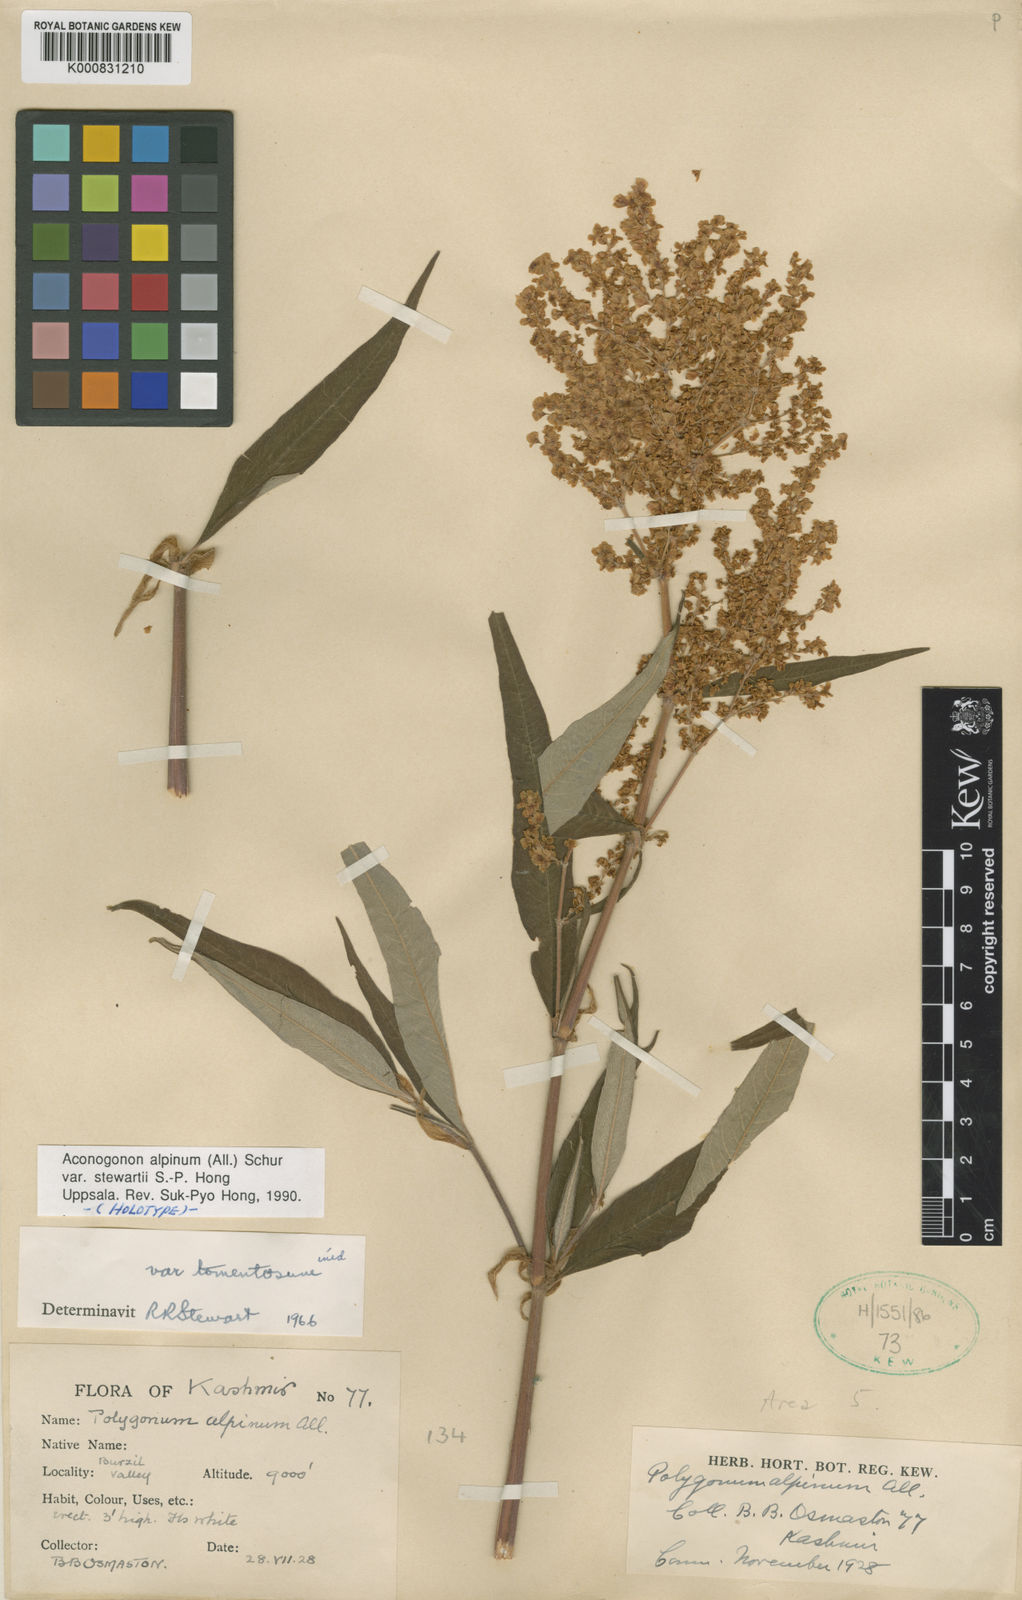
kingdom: Plantae
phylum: Tracheophyta
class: Magnoliopsida
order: Caryophyllales
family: Polygonaceae
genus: Koenigia
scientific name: Koenigia alpina
